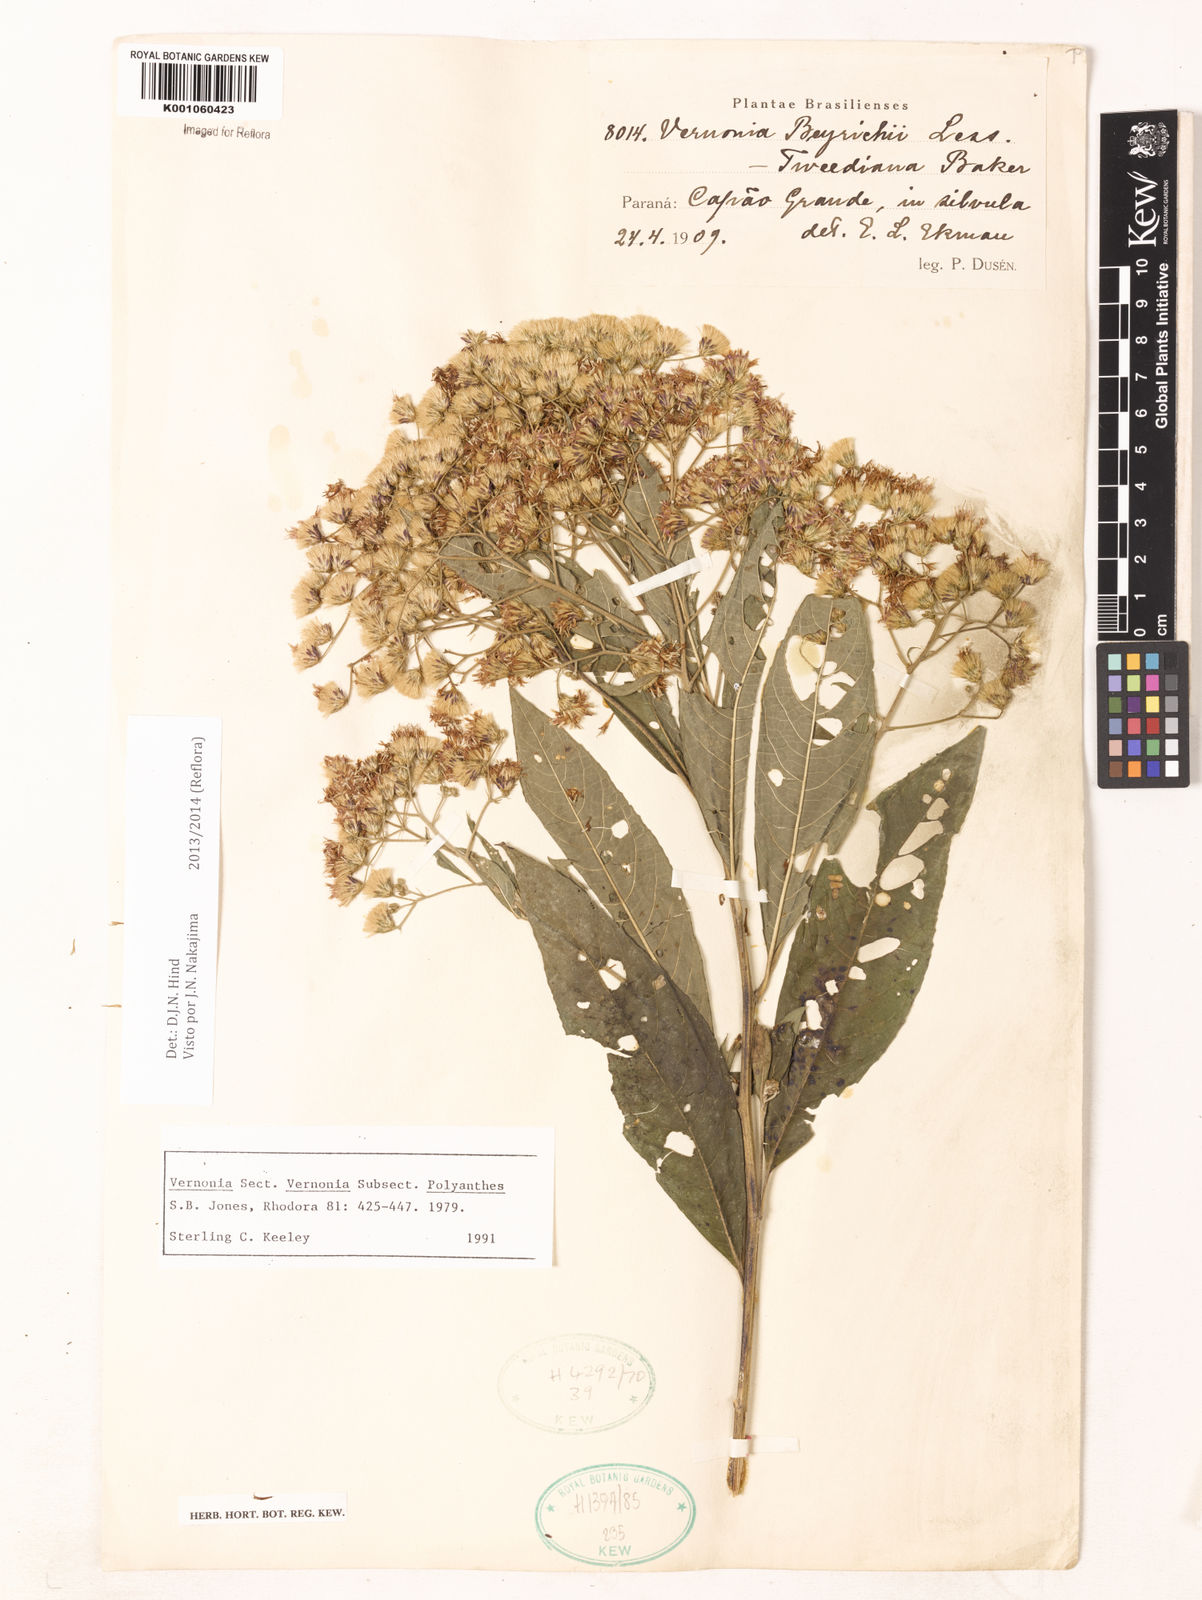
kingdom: Plantae
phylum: Tracheophyta
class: Magnoliopsida
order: Asterales
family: Asteraceae
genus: Vernonanthura
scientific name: Vernonanthura beyrichii
